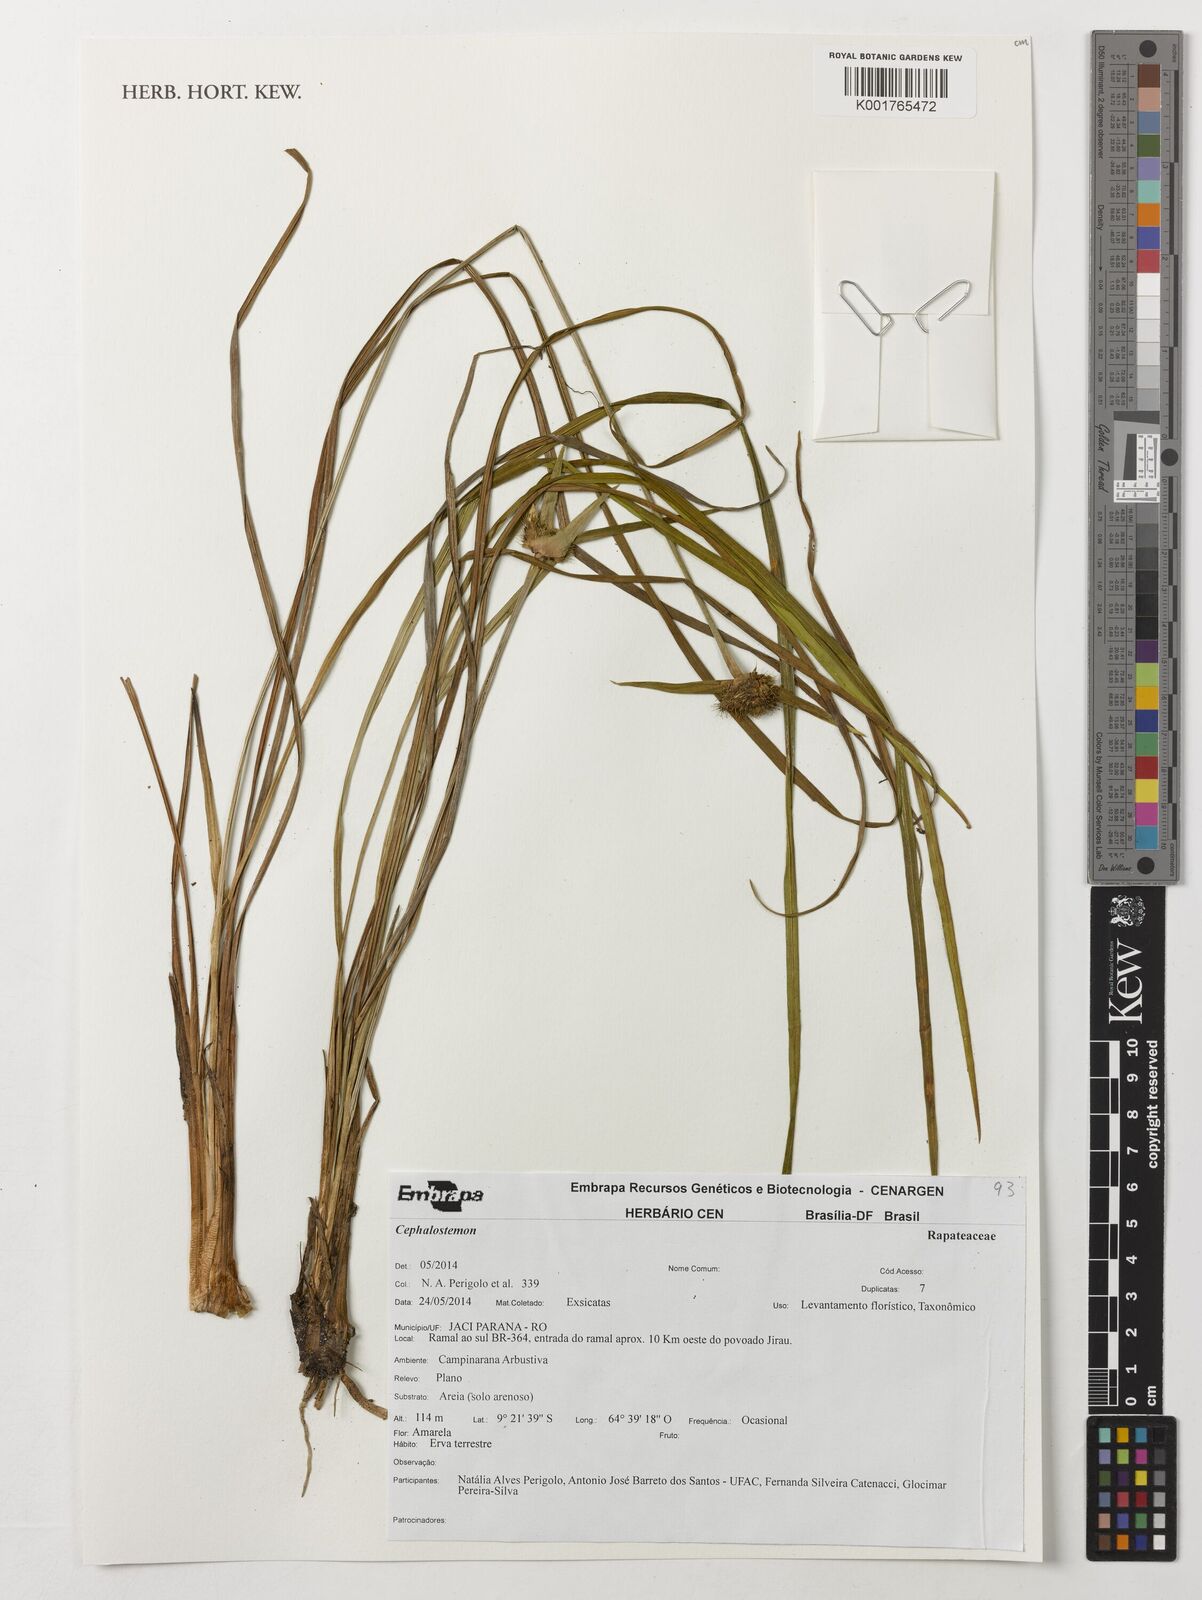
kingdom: Plantae
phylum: Tracheophyta
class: Liliopsida
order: Poales
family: Rapateaceae
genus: Cephalostemon
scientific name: Cephalostemon
